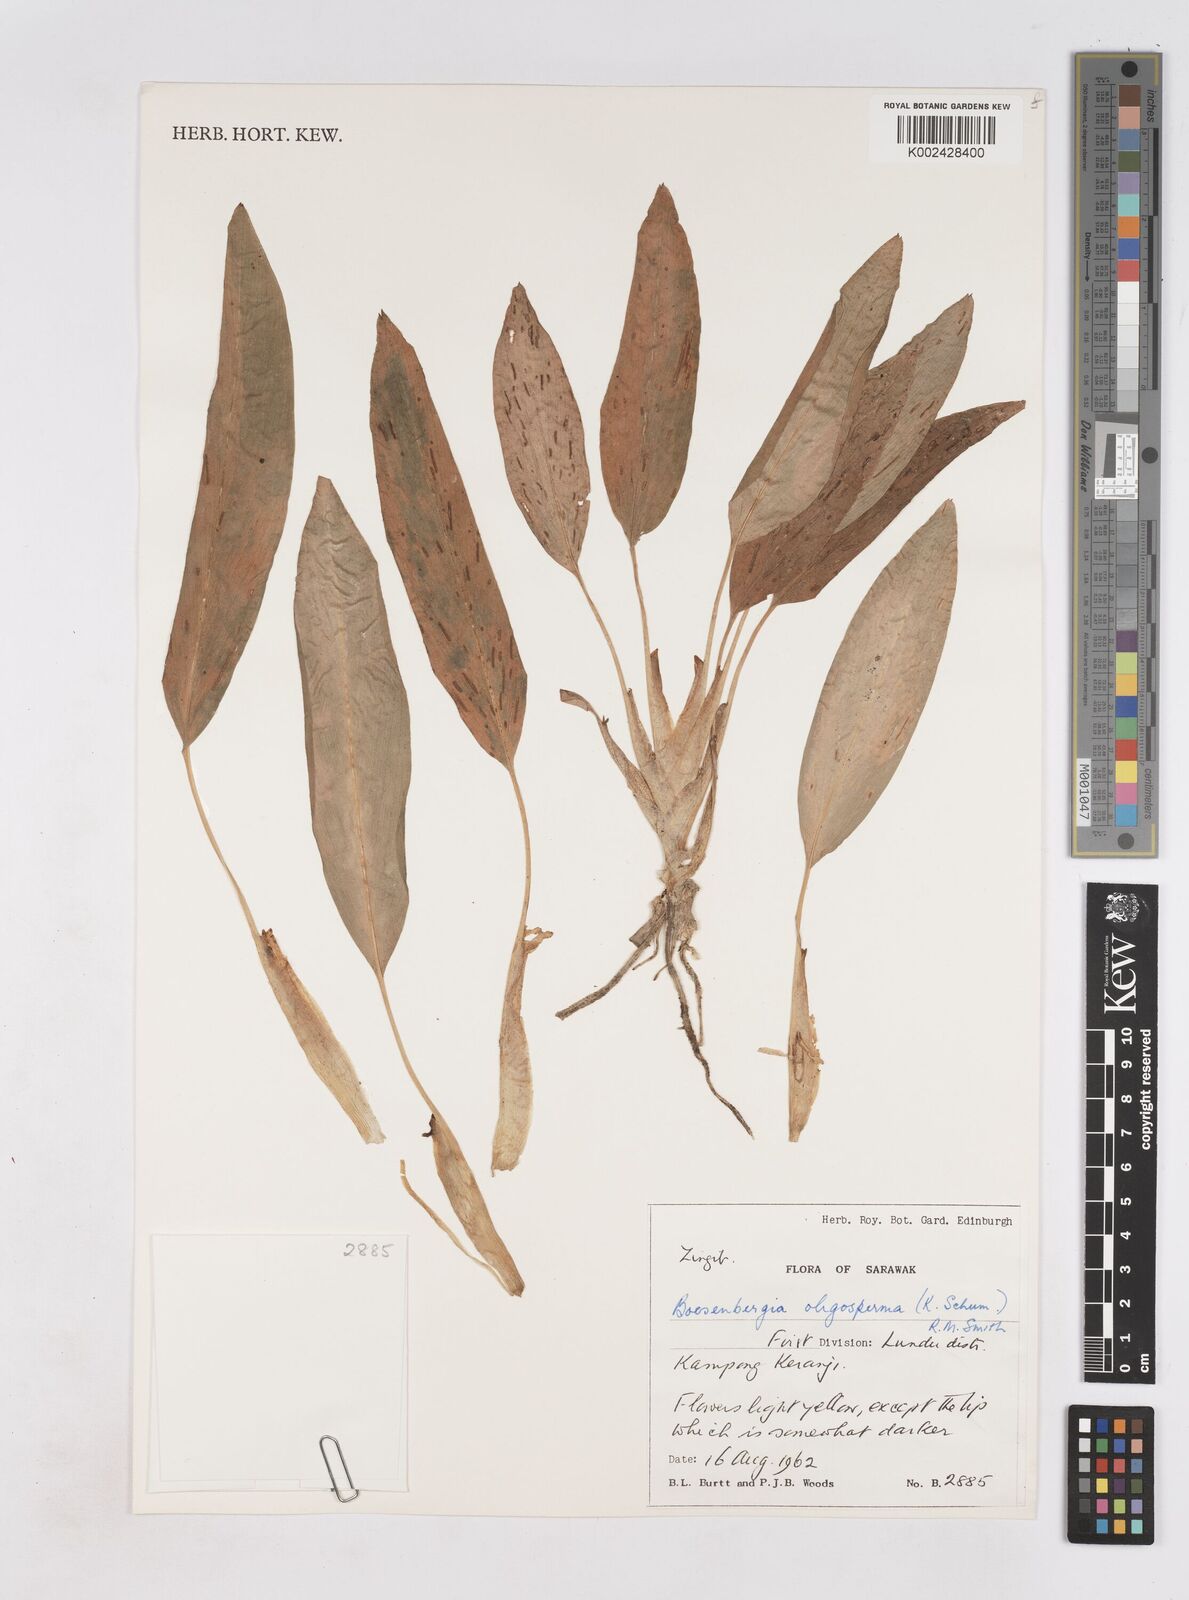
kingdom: Plantae
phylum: Tracheophyta
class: Liliopsida
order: Zingiberales
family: Zingiberaceae
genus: Boesenbergia
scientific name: Boesenbergia oligosperma
